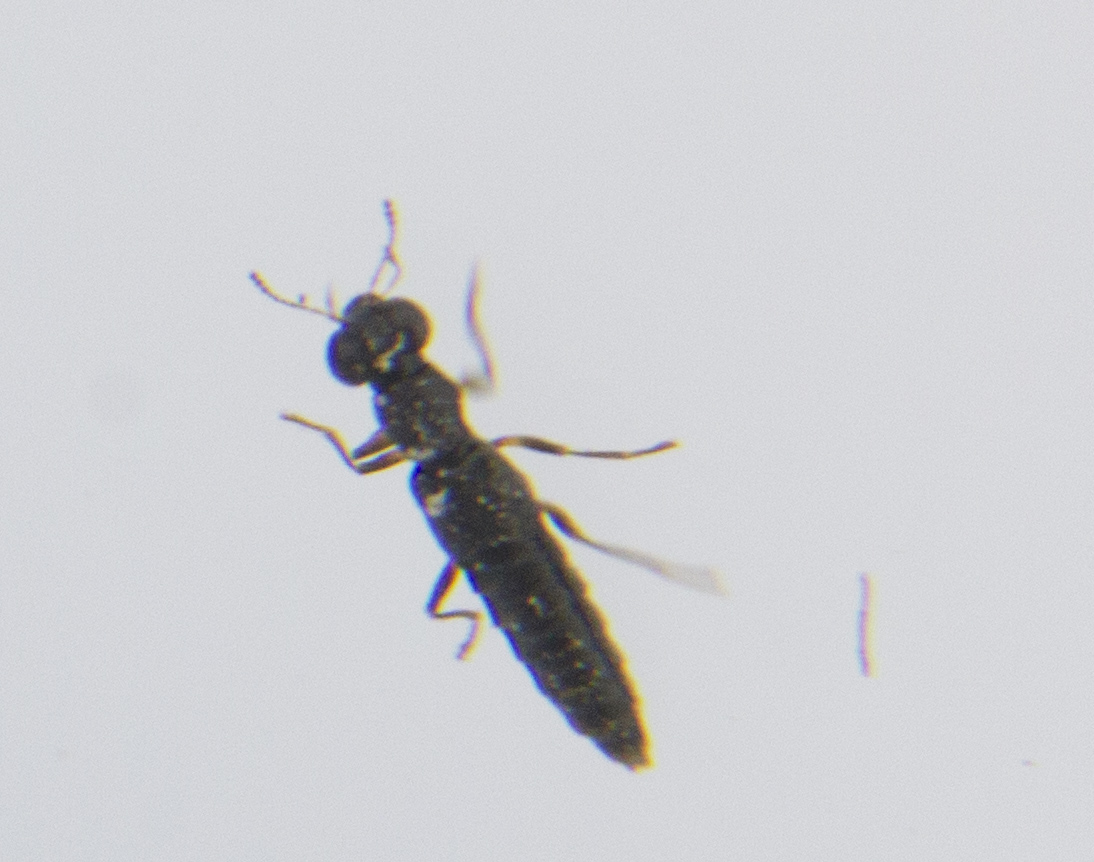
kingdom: Animalia
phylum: Arthropoda
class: Insecta
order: Coleoptera
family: Staphylinidae
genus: Stenus
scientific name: Stenus
